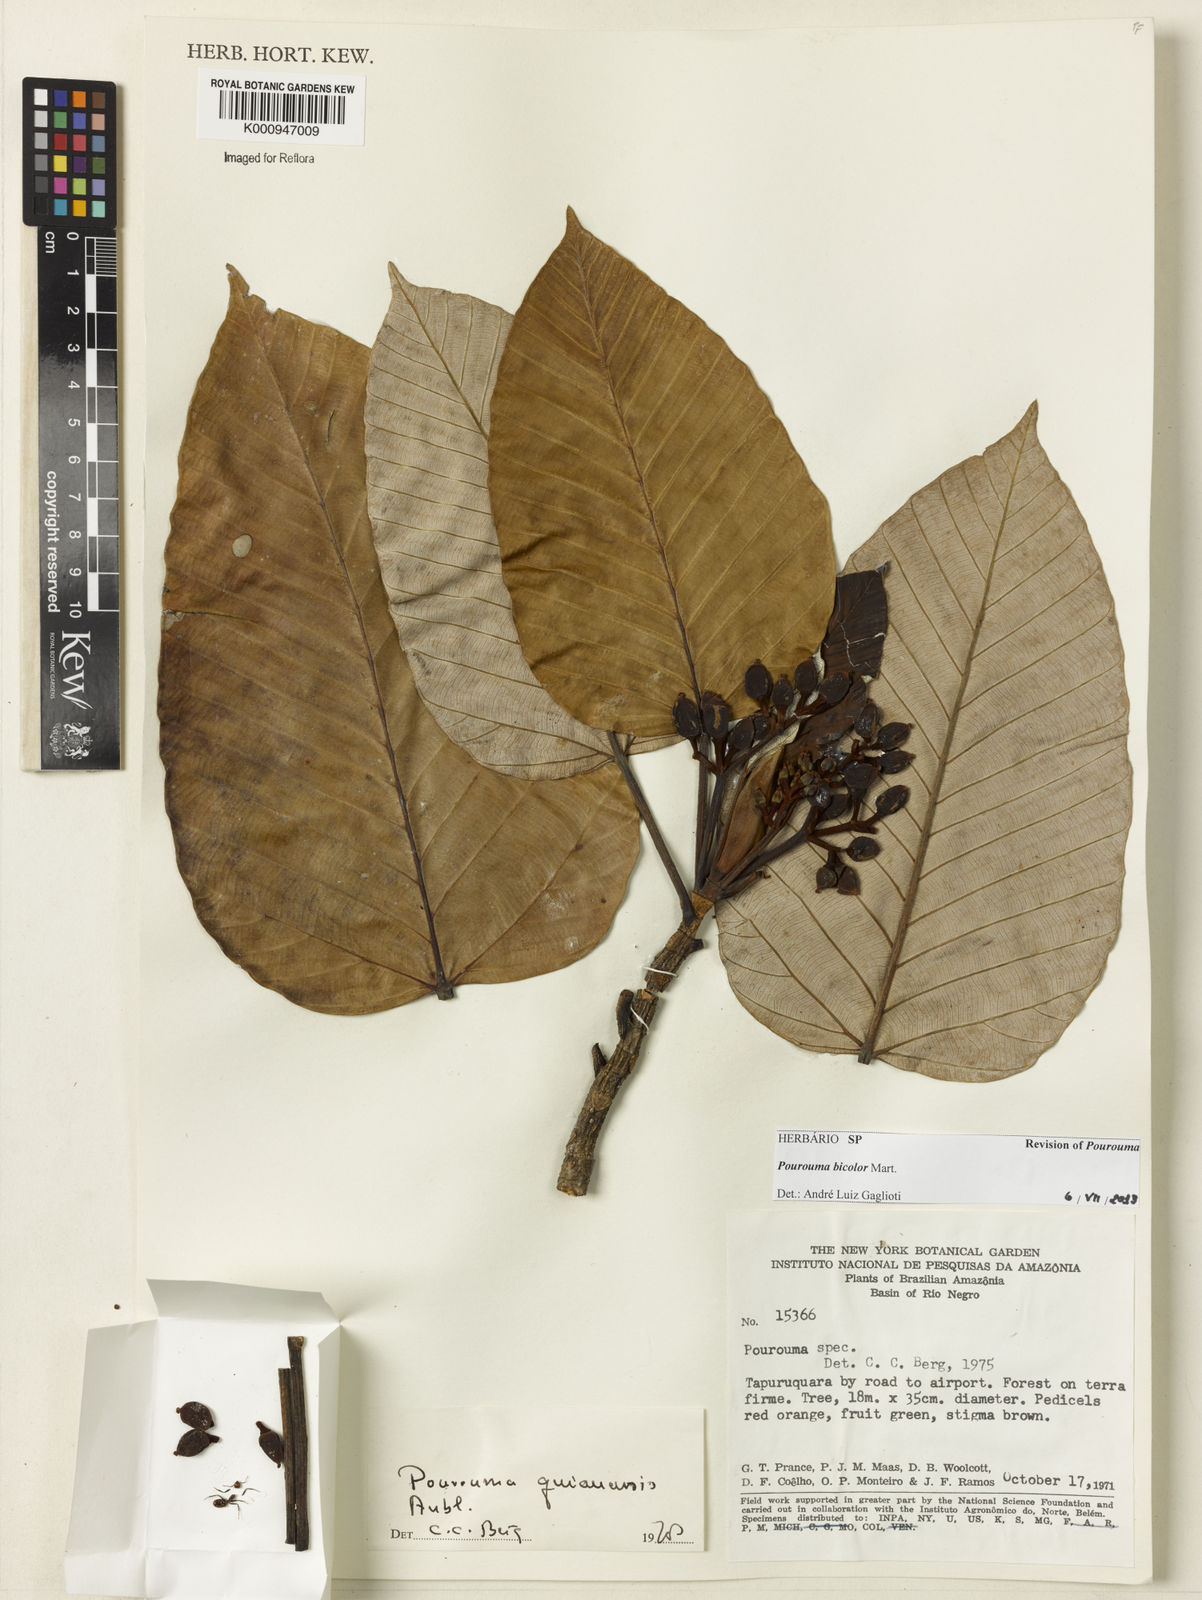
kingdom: Plantae
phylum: Tracheophyta
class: Magnoliopsida
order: Rosales
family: Urticaceae
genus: Pourouma
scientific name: Pourouma bicolor
